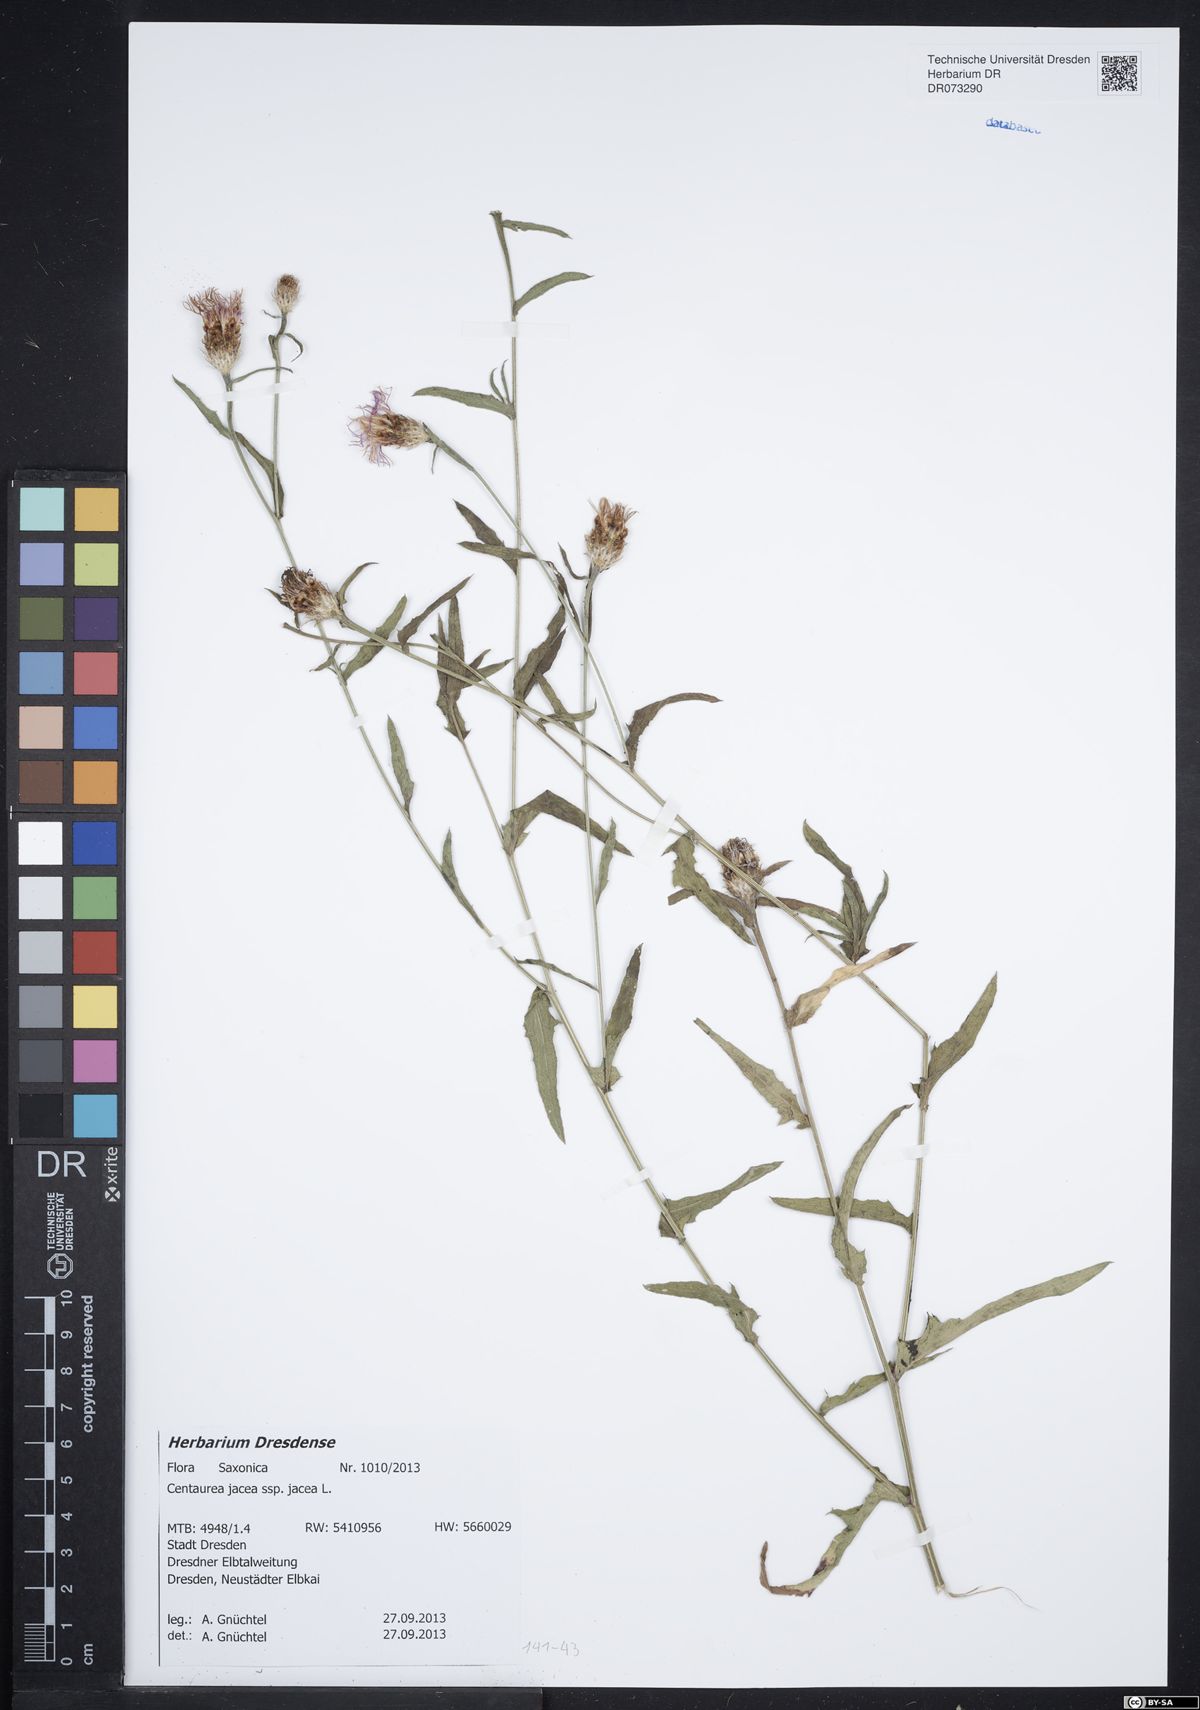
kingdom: Plantae
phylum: Tracheophyta
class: Magnoliopsida
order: Asterales
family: Asteraceae
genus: Centaurea
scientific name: Centaurea jacea
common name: Brown knapweed
